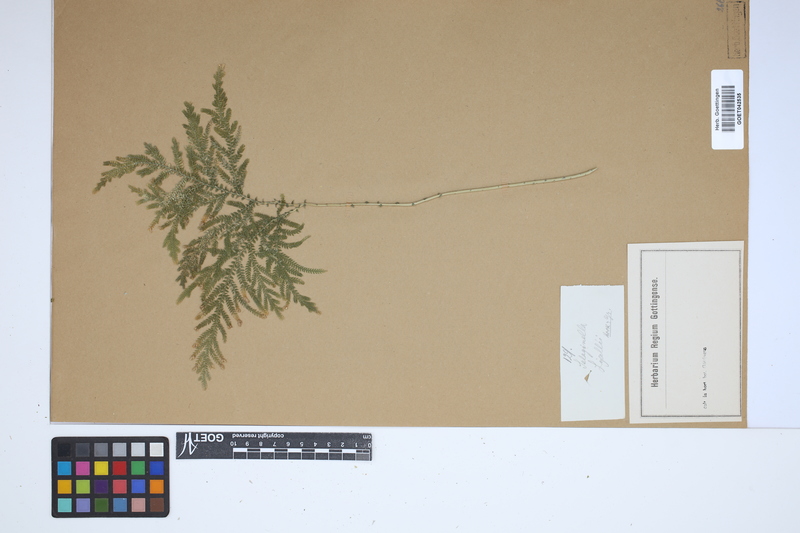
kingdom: Plantae
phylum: Tracheophyta
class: Lycopodiopsida
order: Selaginellales
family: Selaginellaceae
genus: Selaginella
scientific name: Selaginella lyallii
